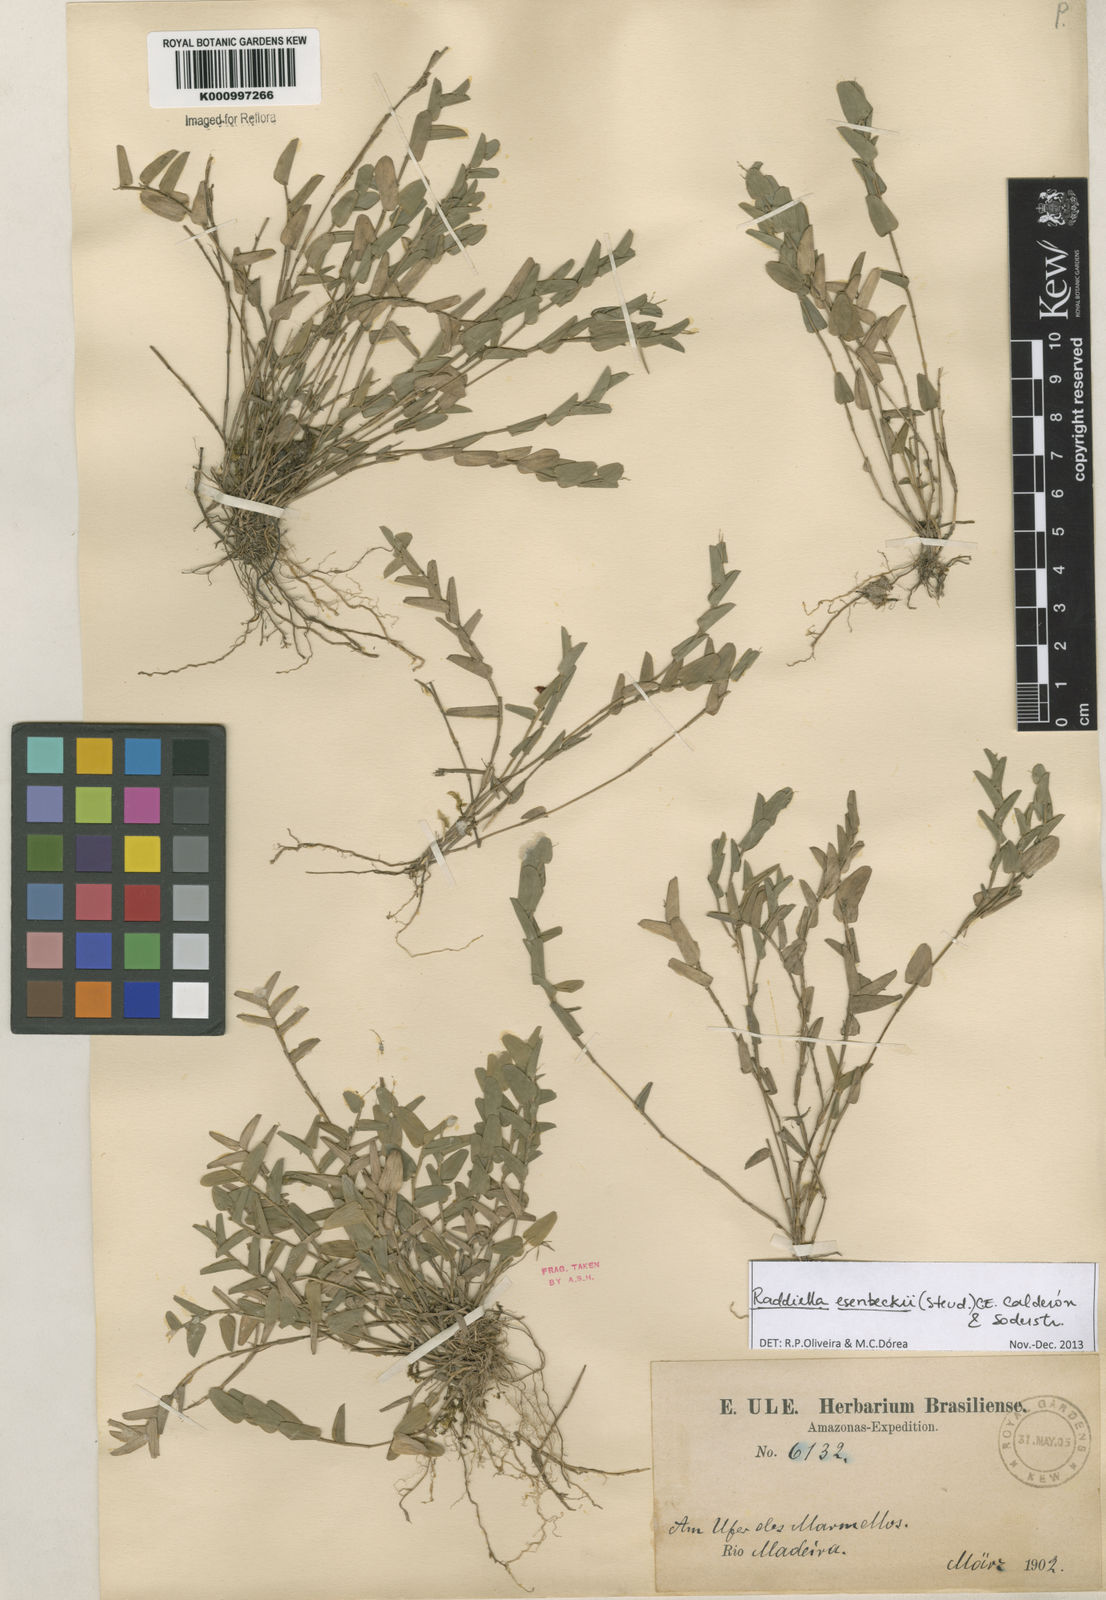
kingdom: Plantae
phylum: Tracheophyta
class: Liliopsida
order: Poales
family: Poaceae
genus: Raddiella
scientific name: Raddiella
